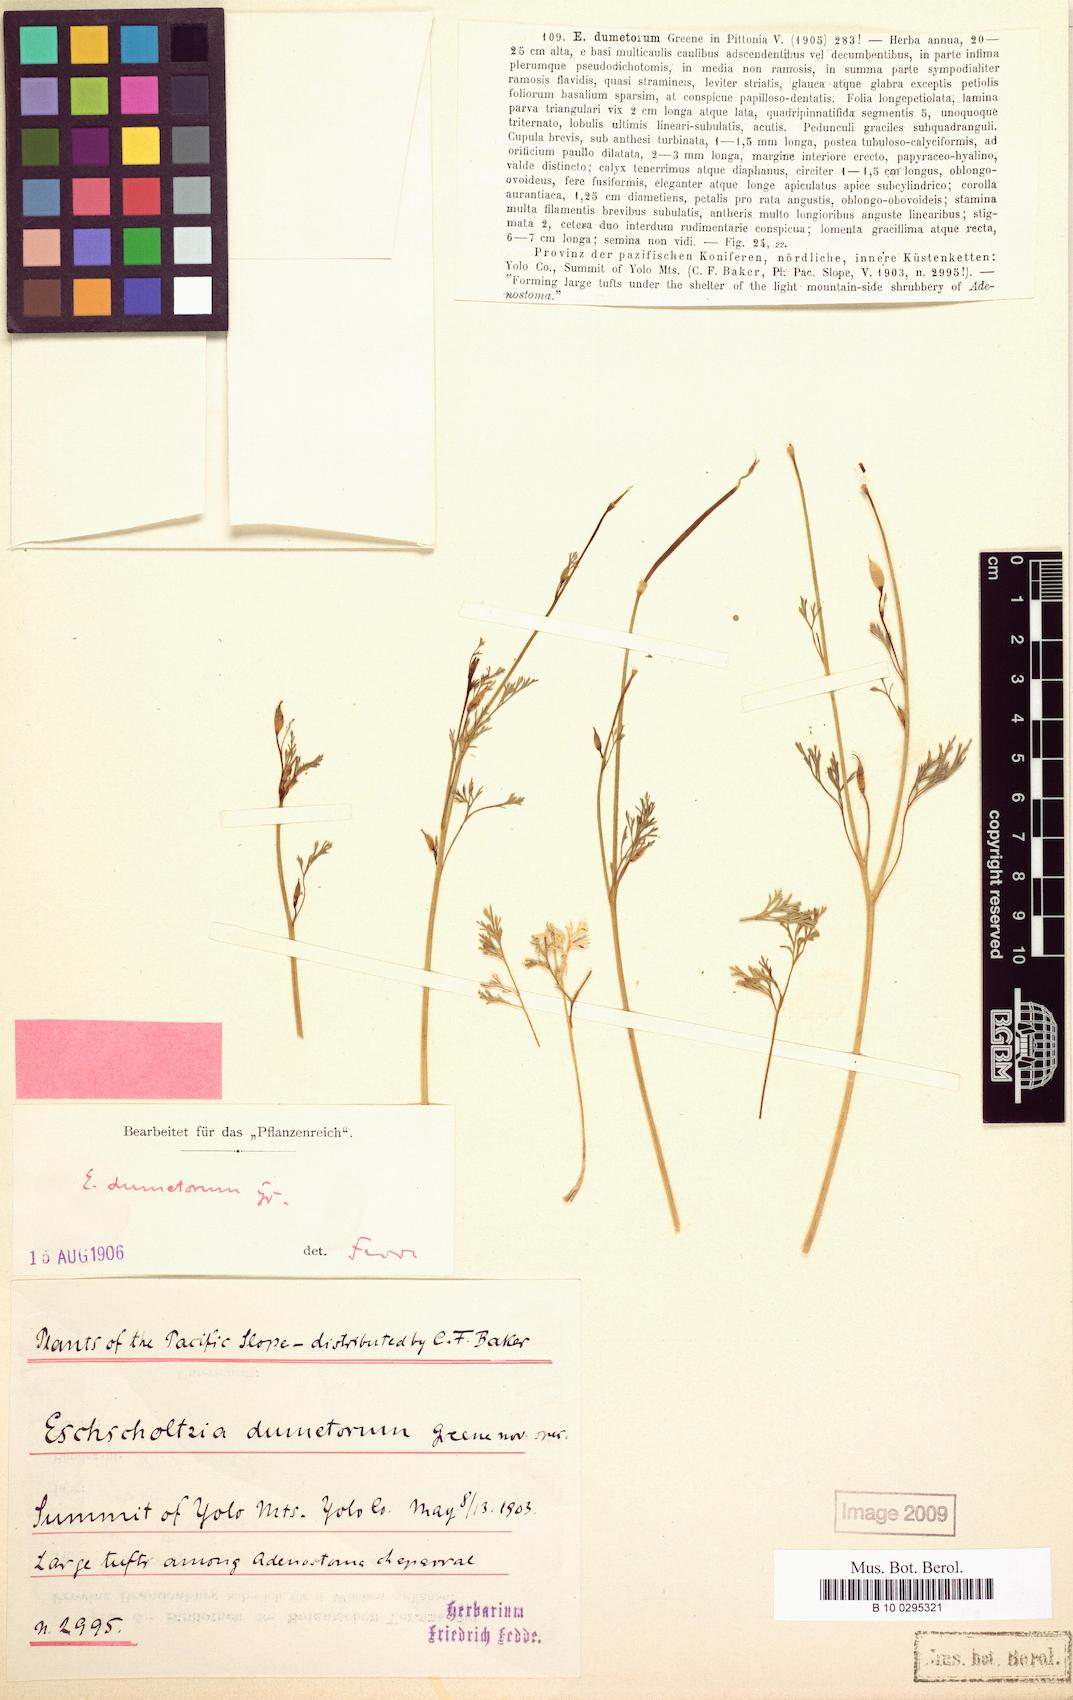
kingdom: Plantae
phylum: Tracheophyta
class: Magnoliopsida
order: Ranunculales
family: Papaveraceae
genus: Eschscholzia
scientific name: Eschscholzia caespitosa
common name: Tufted california-poppy
